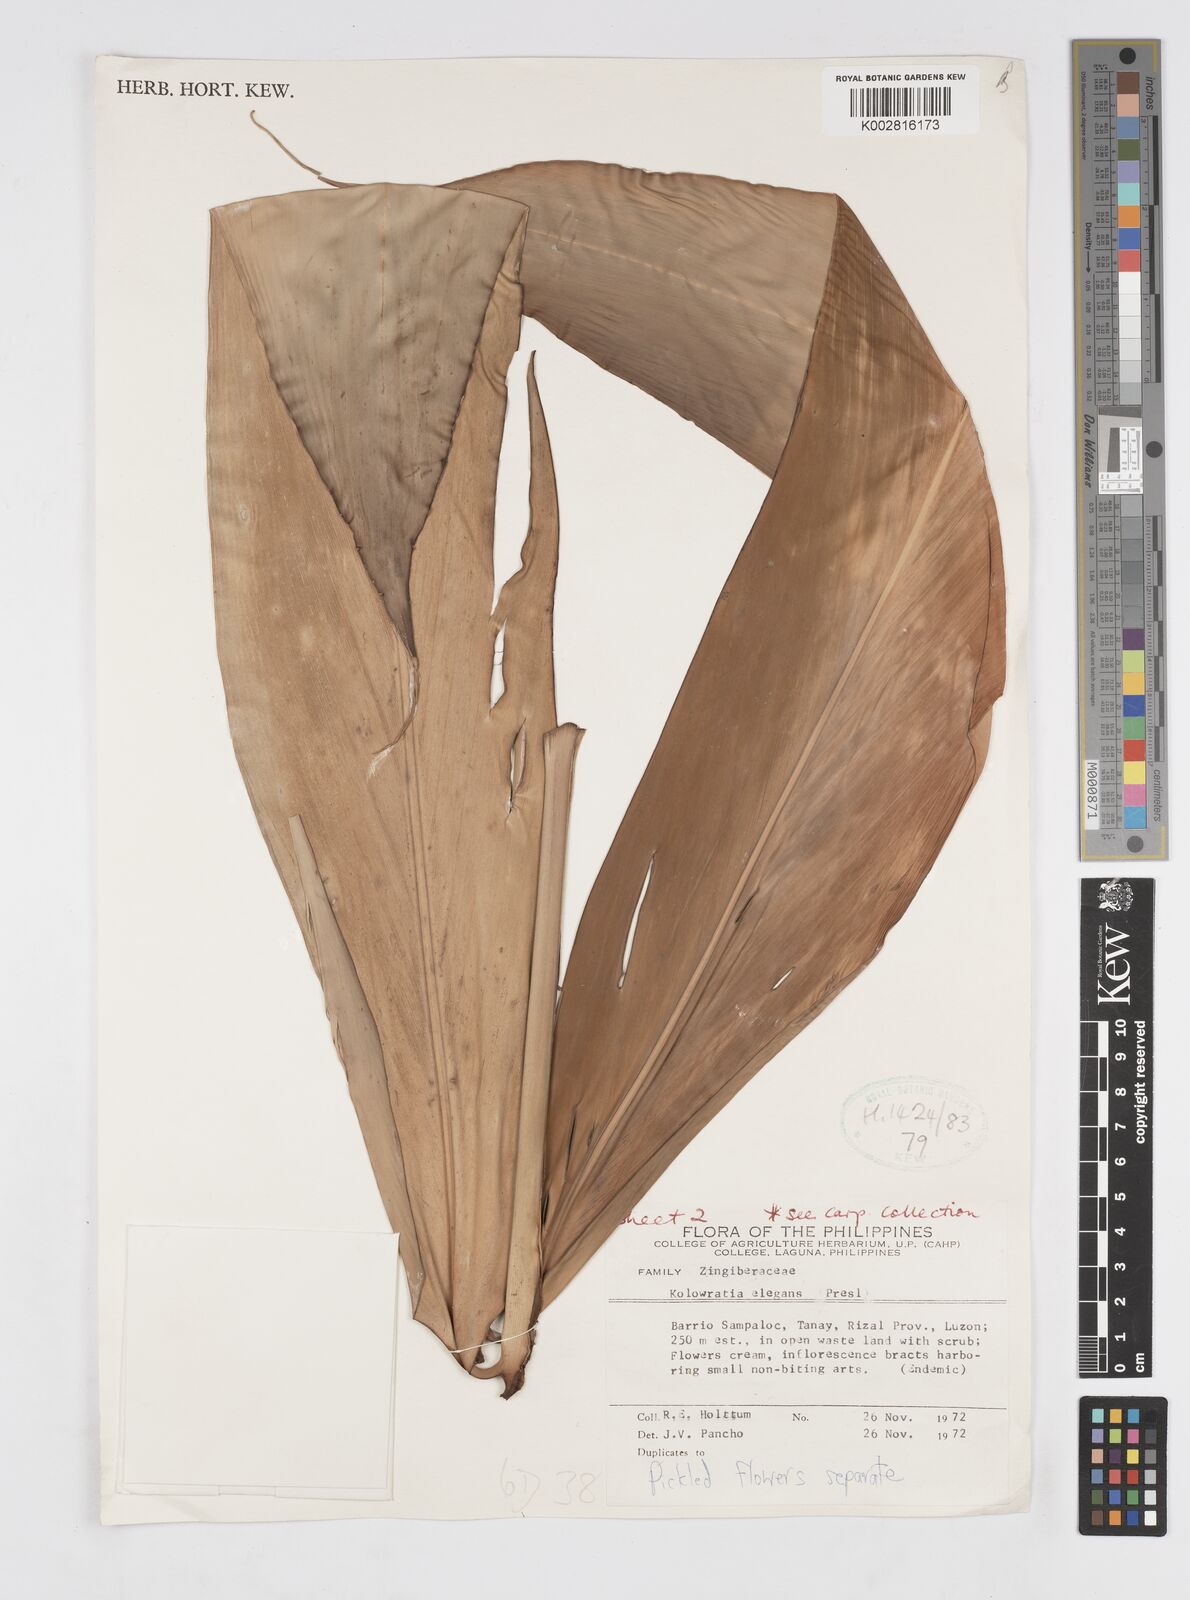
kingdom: Plantae
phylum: Tracheophyta
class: Liliopsida
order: Zingiberales
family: Zingiberaceae
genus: Alpinia
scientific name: Alpinia elegans
